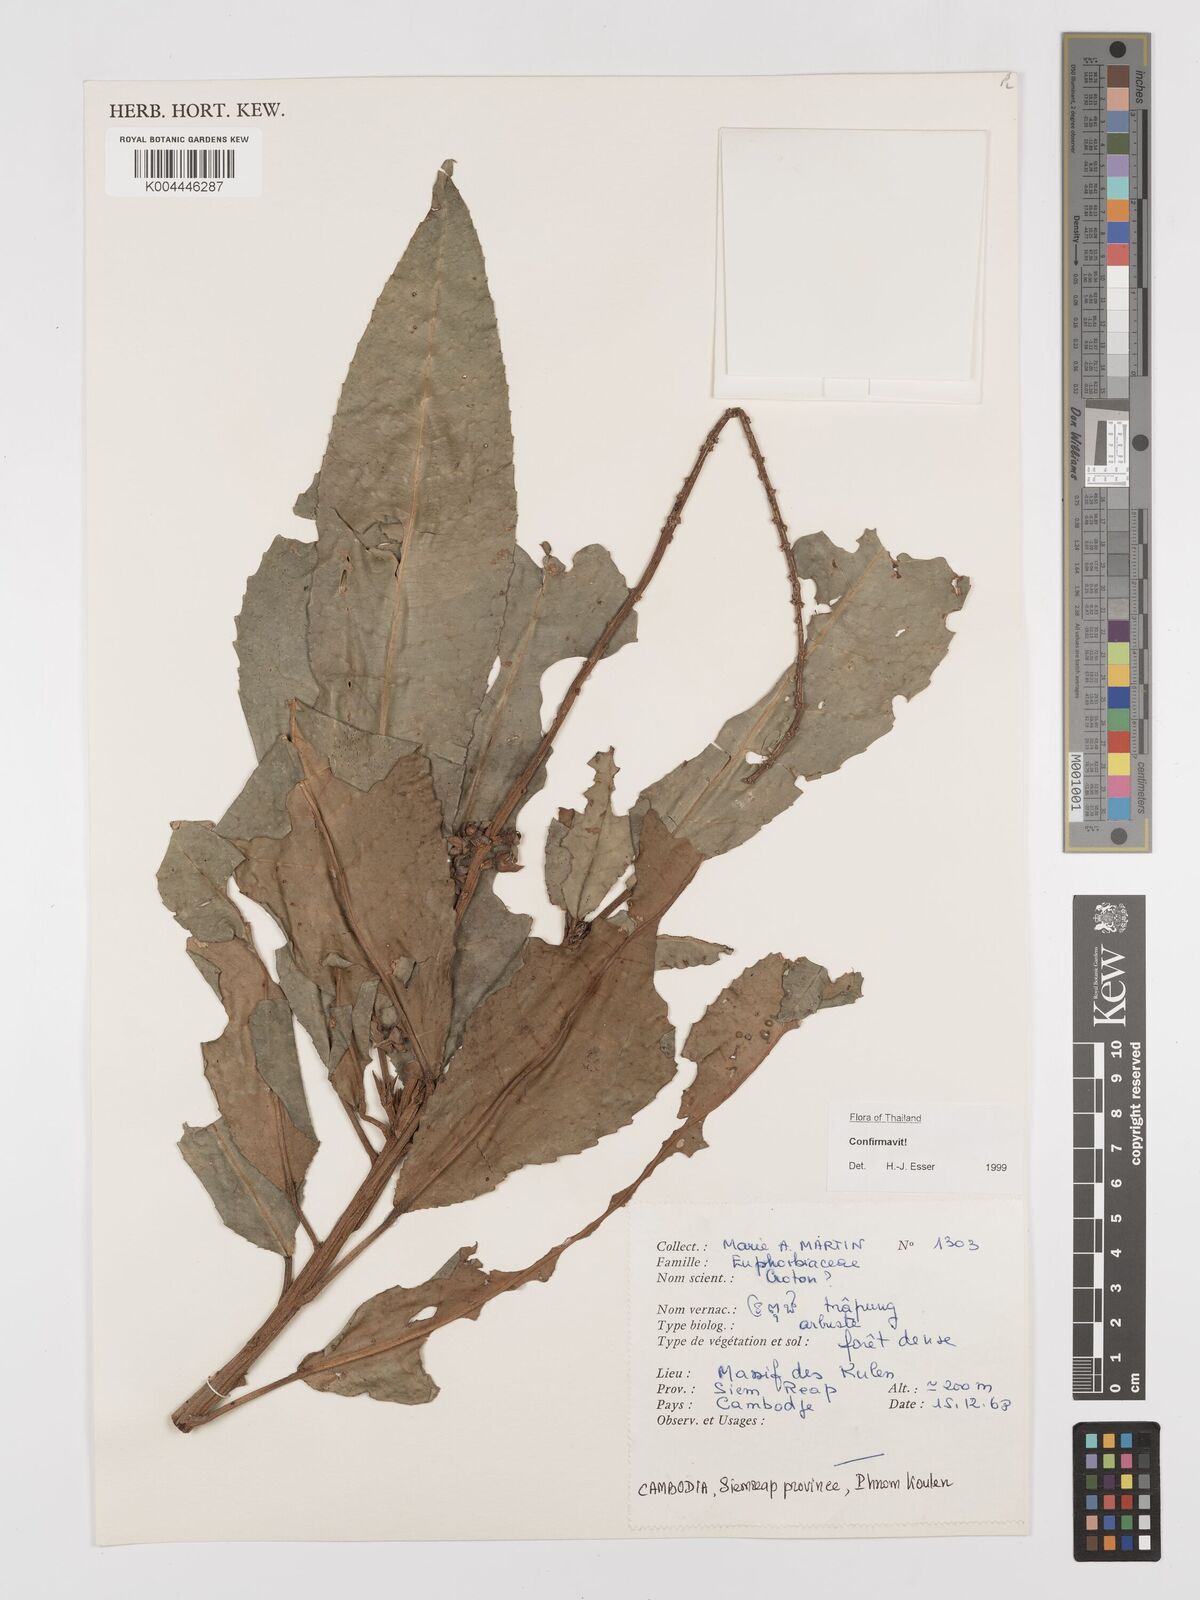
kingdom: Plantae
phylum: Tracheophyta
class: Magnoliopsida
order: Malpighiales
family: Euphorbiaceae
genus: Croton
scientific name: Croton poilanei
